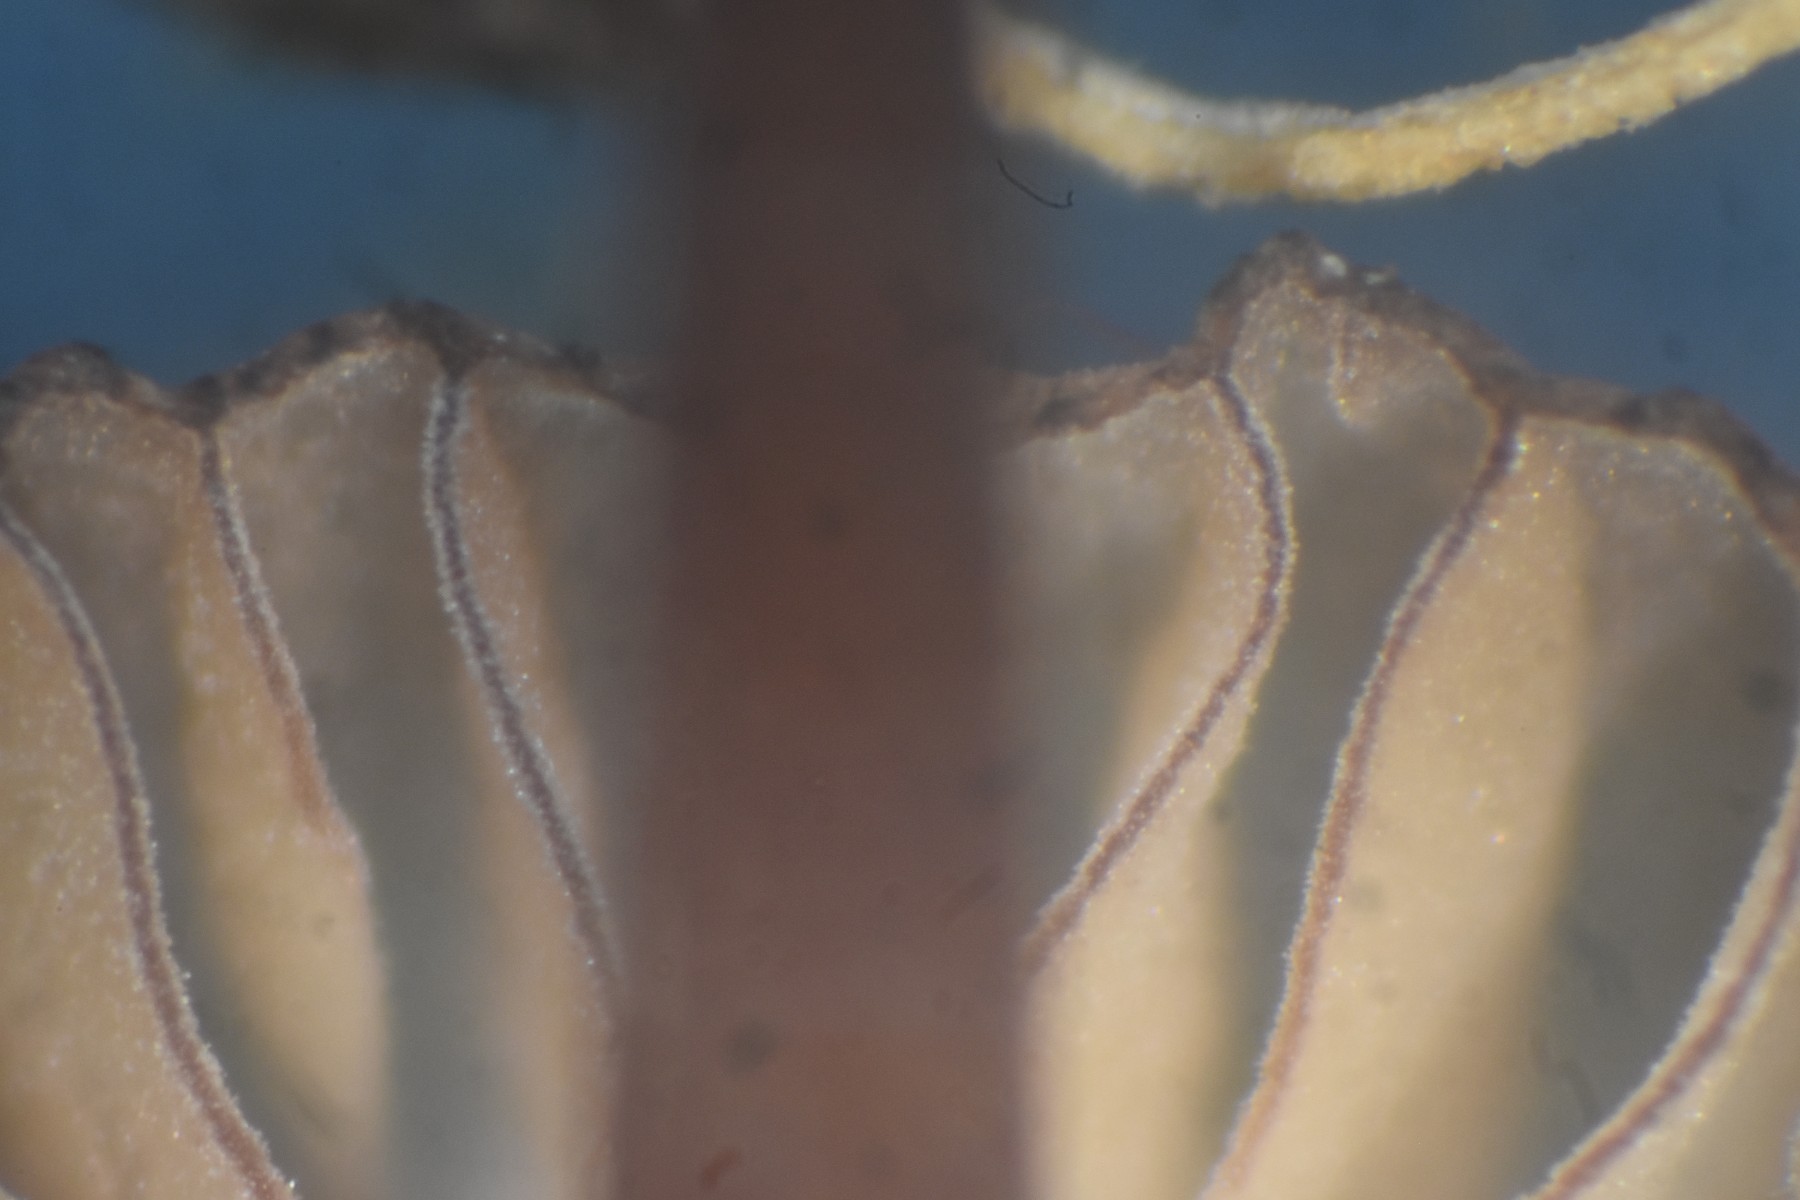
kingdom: Fungi
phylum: Basidiomycota
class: Agaricomycetes
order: Agaricales
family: Mycenaceae
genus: Mycena
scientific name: Mycena sanguinolenta
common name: rødmælket huesvamp
